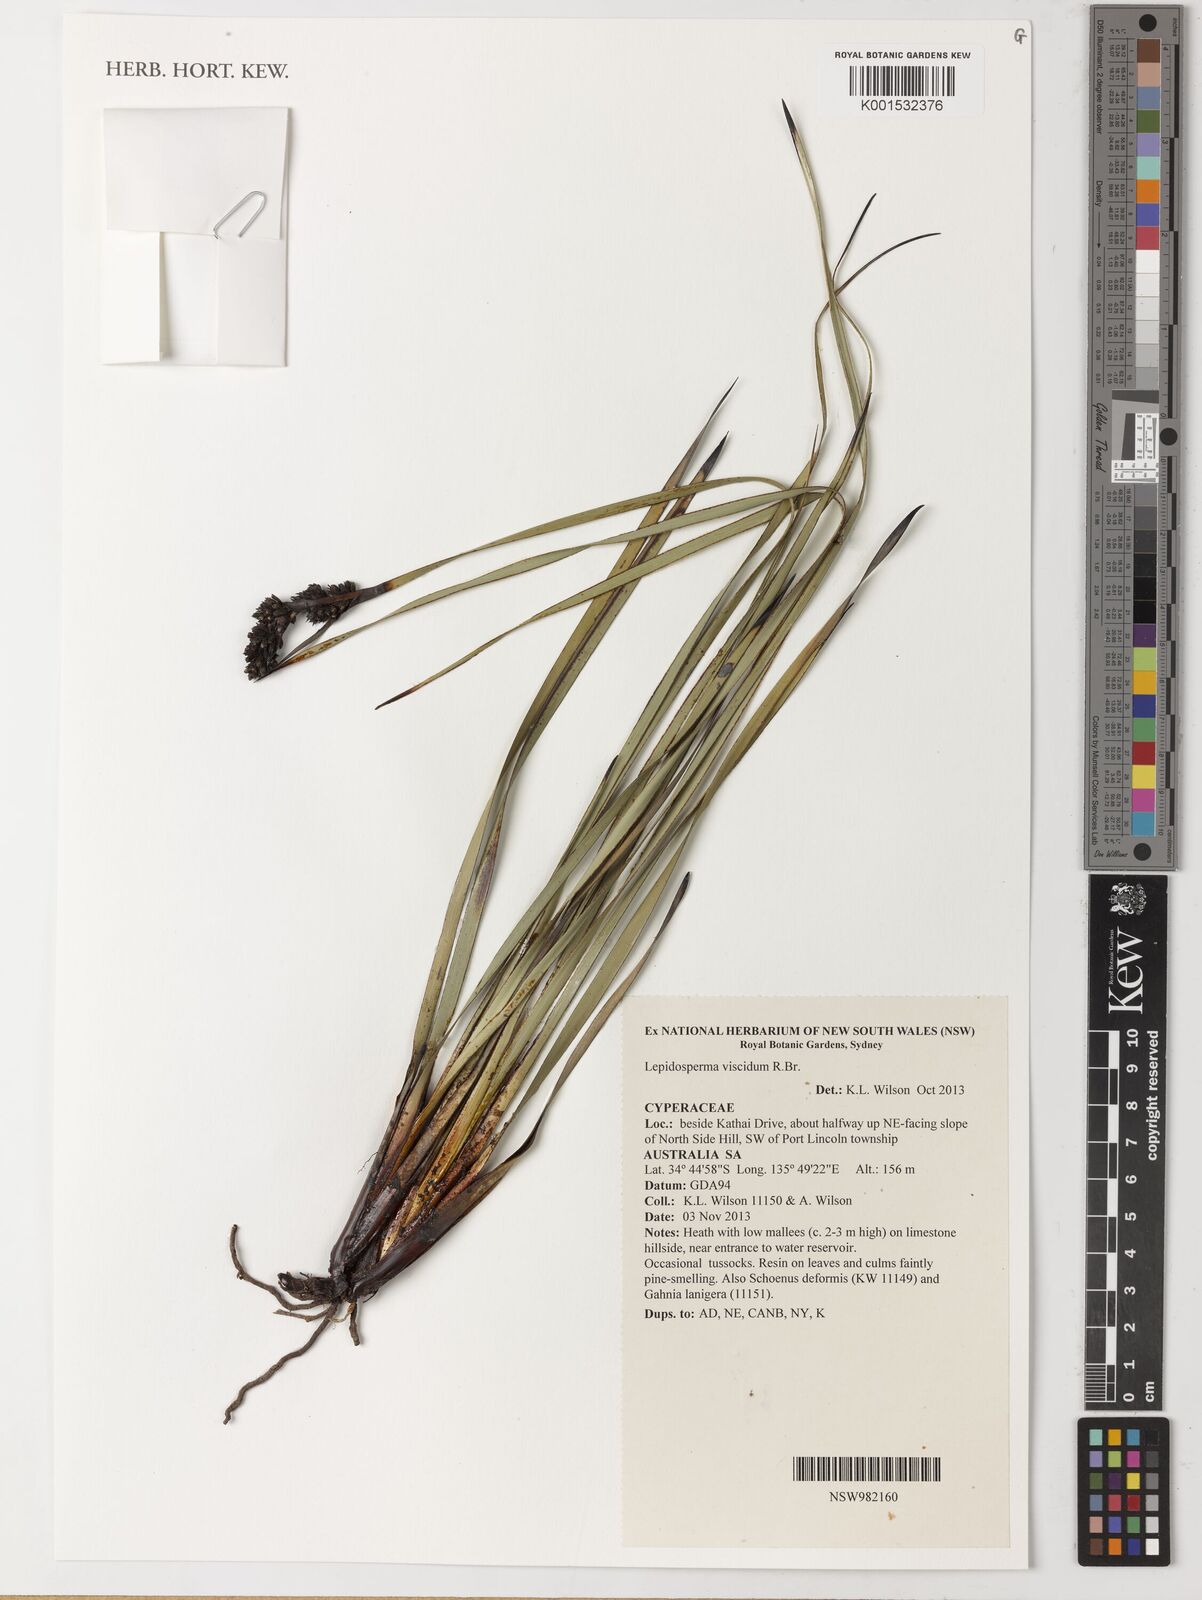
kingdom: Plantae
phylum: Tracheophyta
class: Liliopsida
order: Poales
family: Cyperaceae
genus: Lepidosperma
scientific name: Lepidosperma viscidum
